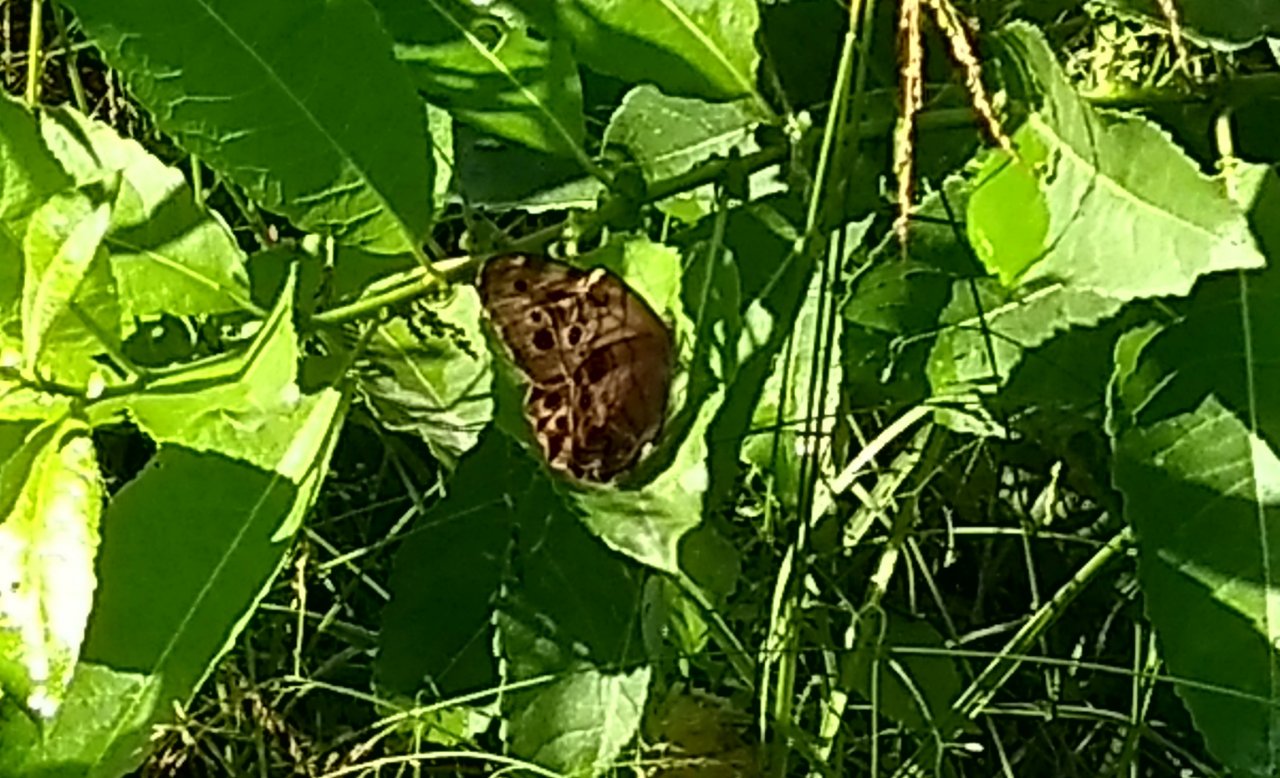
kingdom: Animalia
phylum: Arthropoda
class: Insecta
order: Lepidoptera
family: Nymphalidae
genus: Lethe
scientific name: Lethe anthedon
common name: Northern Pearly-Eye
